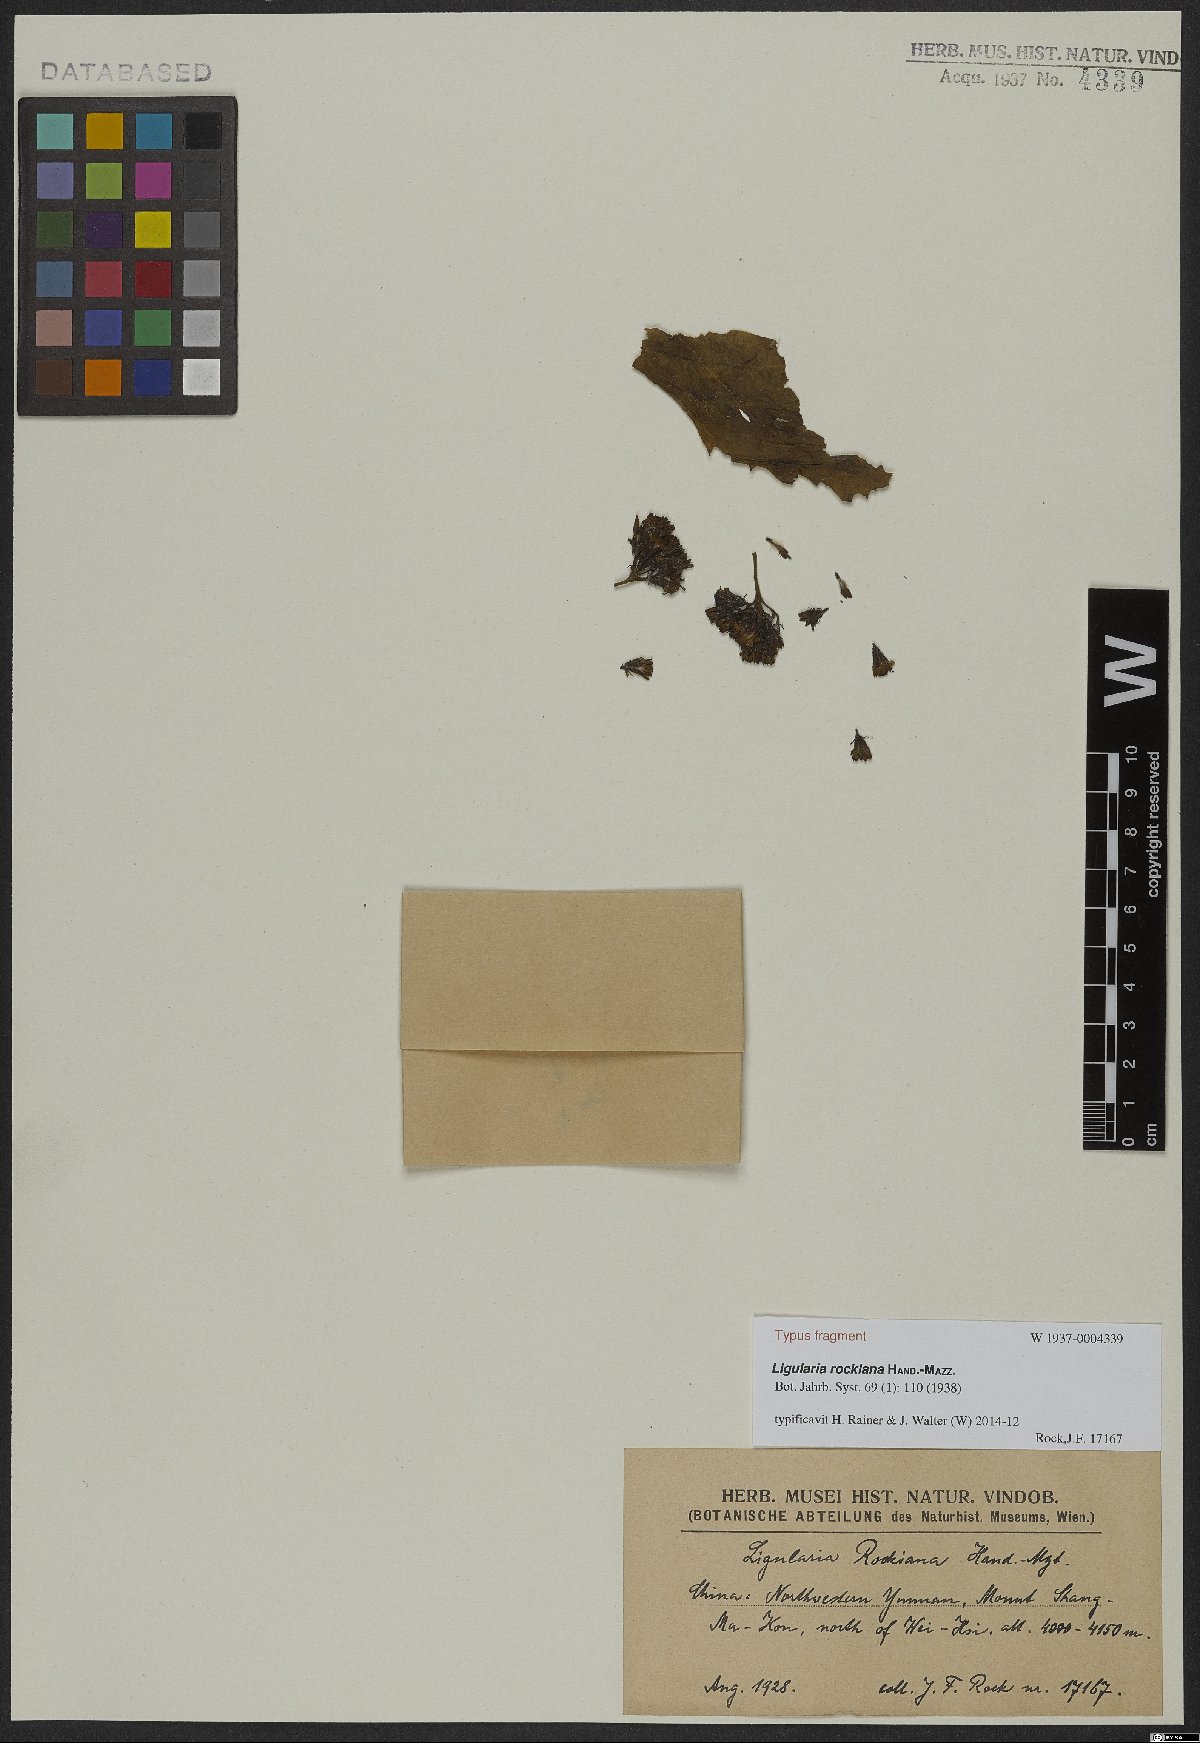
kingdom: Plantae
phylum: Tracheophyta
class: Magnoliopsida
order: Asterales
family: Asteraceae
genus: Ligularia
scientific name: Ligularia rockiana
